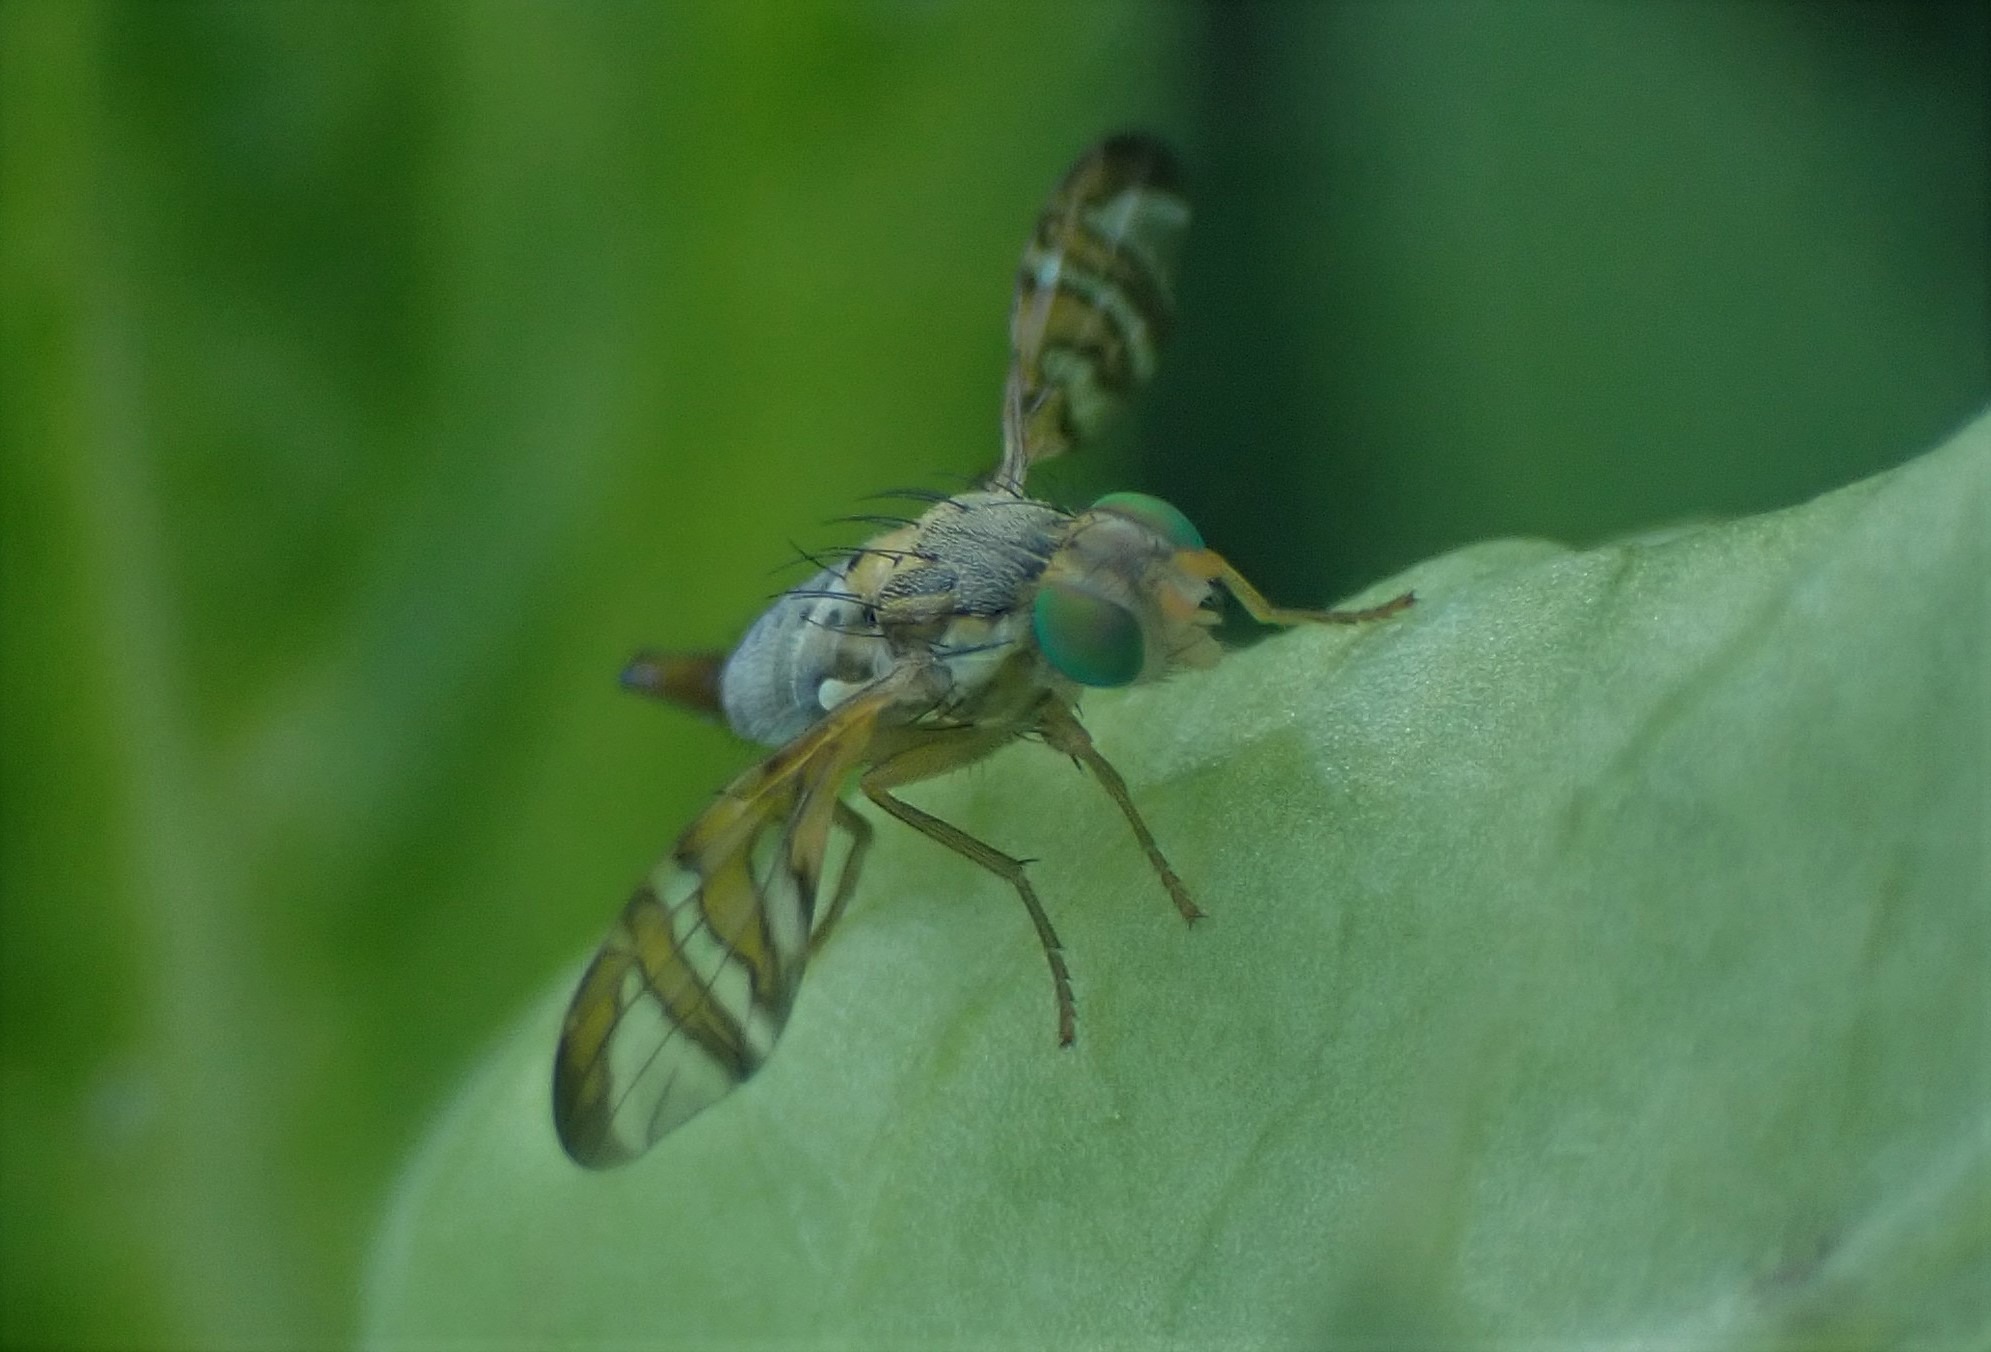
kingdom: Animalia
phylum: Arthropoda
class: Insecta
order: Diptera
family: Tephritidae
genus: Chaetostomella
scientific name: Chaetostomella cylindrica
